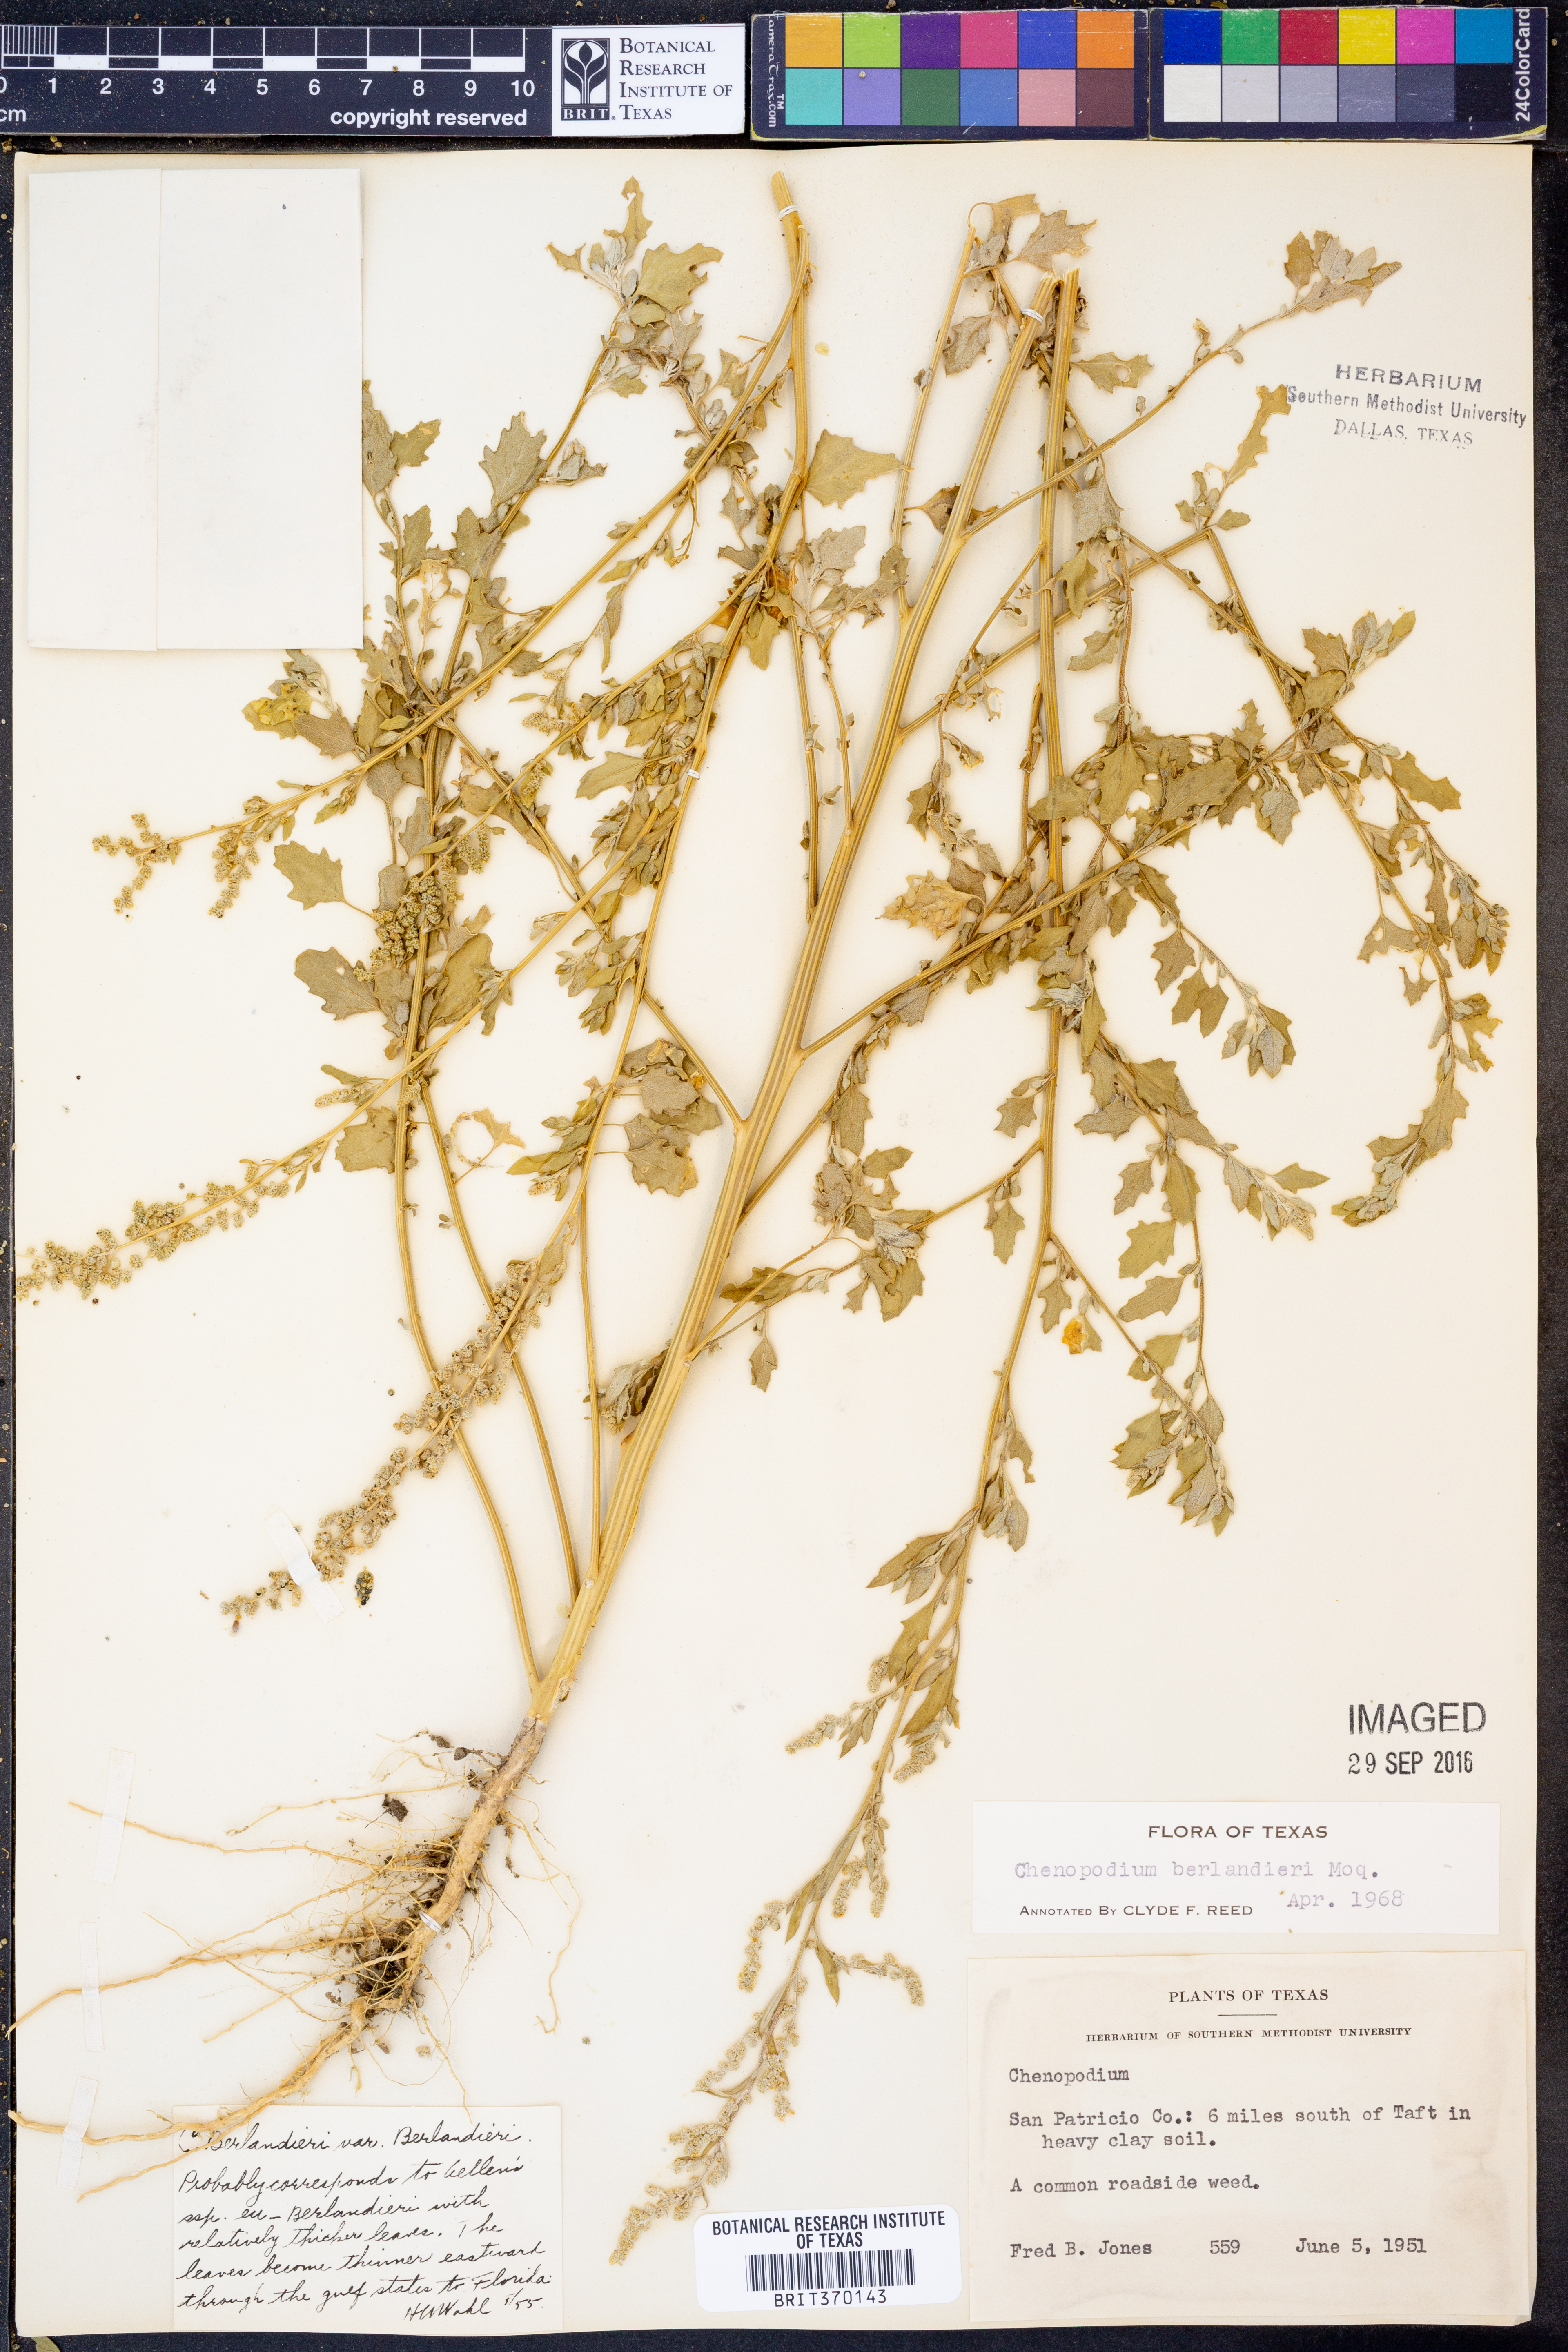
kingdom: Plantae
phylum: Tracheophyta
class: Magnoliopsida
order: Caryophyllales
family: Amaranthaceae
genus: Chenopodium
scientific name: Chenopodium berlandieri
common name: Pit-seed goosefoot
